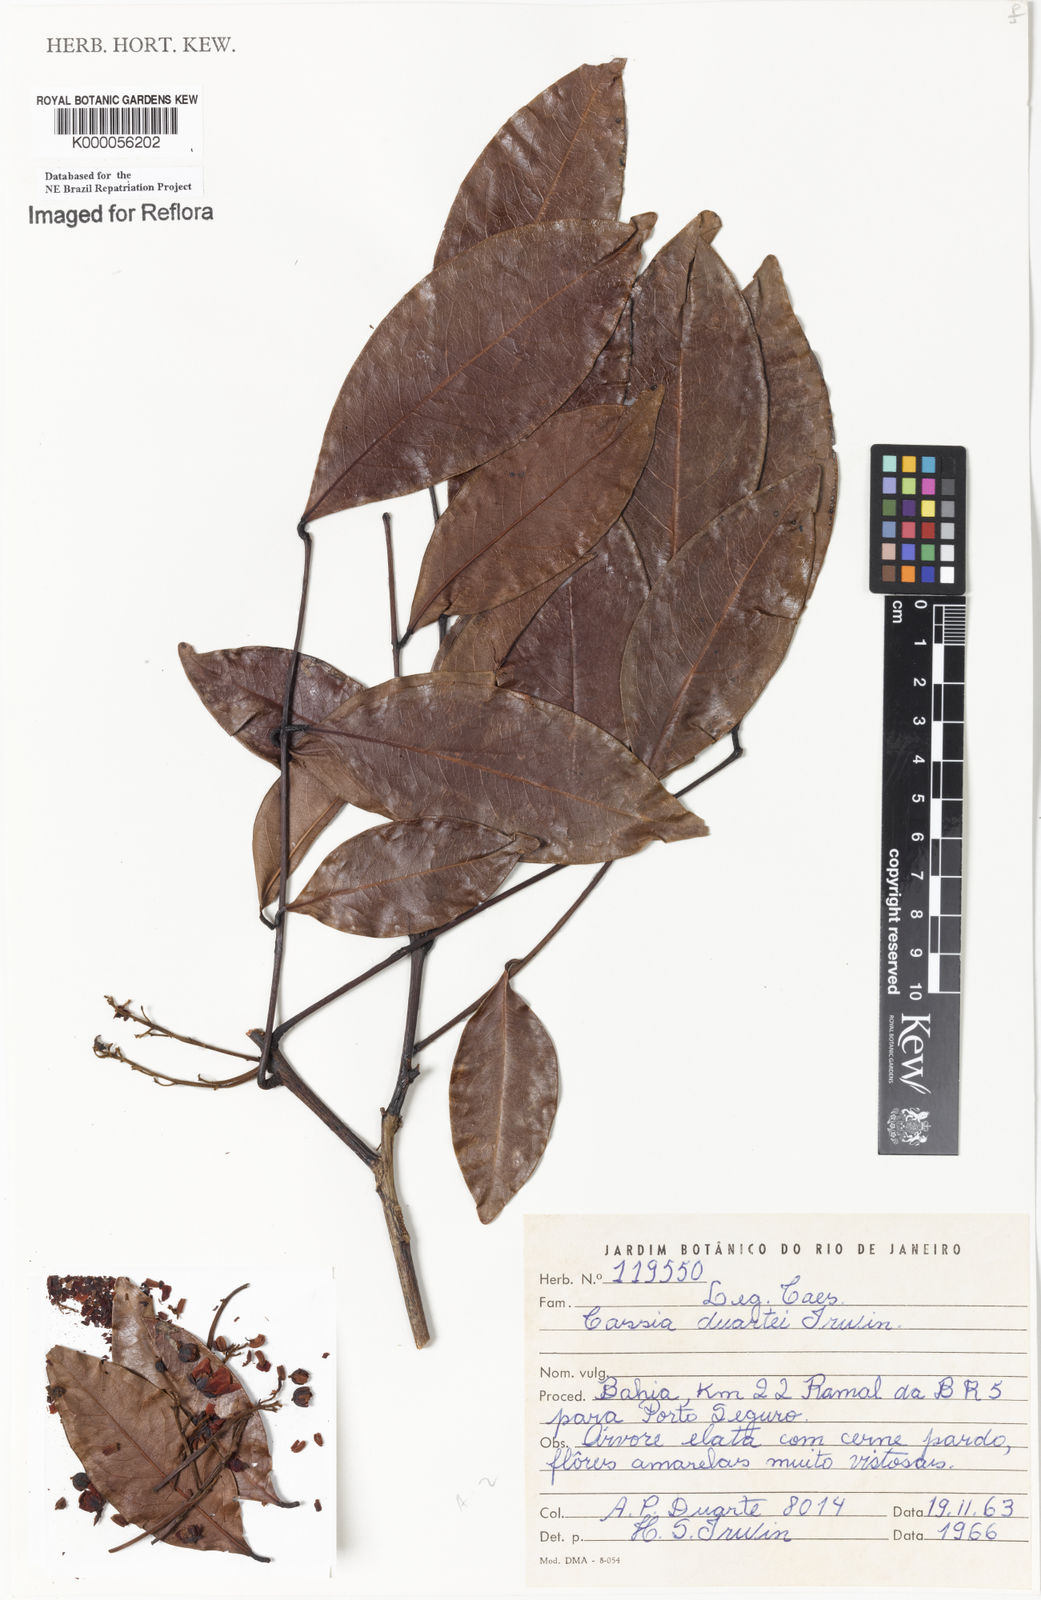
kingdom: Plantae
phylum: Tracheophyta
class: Magnoliopsida
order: Fabales
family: Fabaceae
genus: Chamaecrista
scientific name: Chamaecrista duartei
